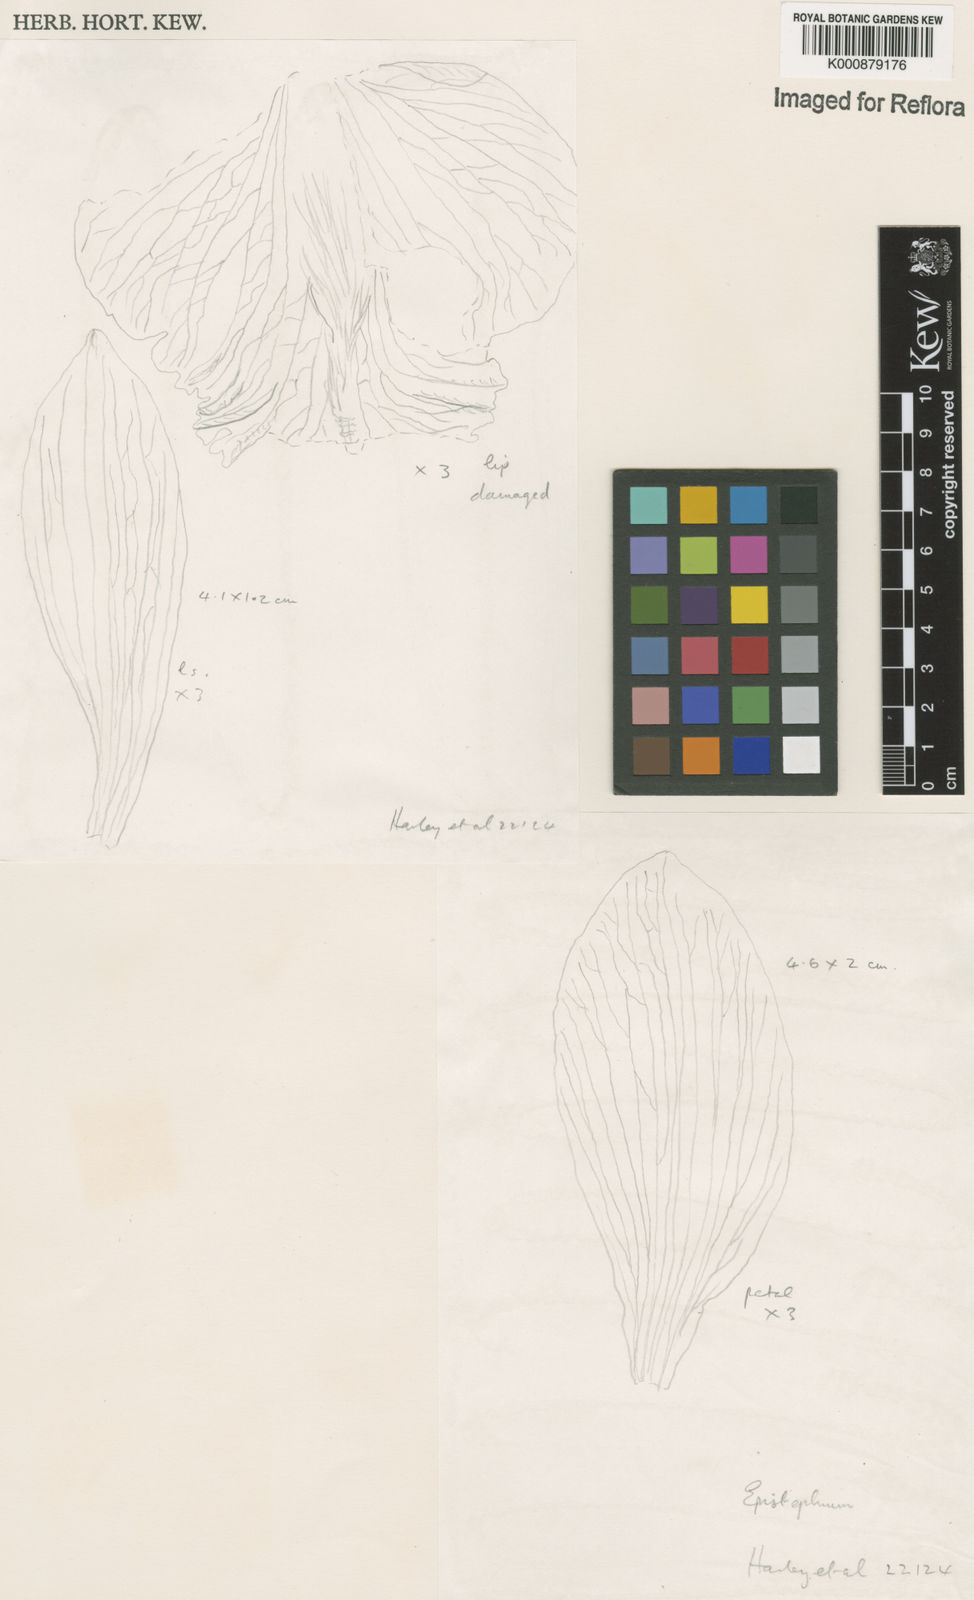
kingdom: Plantae
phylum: Tracheophyta
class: Liliopsida
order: Asparagales
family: Orchidaceae
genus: Epistephium
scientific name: Epistephium williamsii
